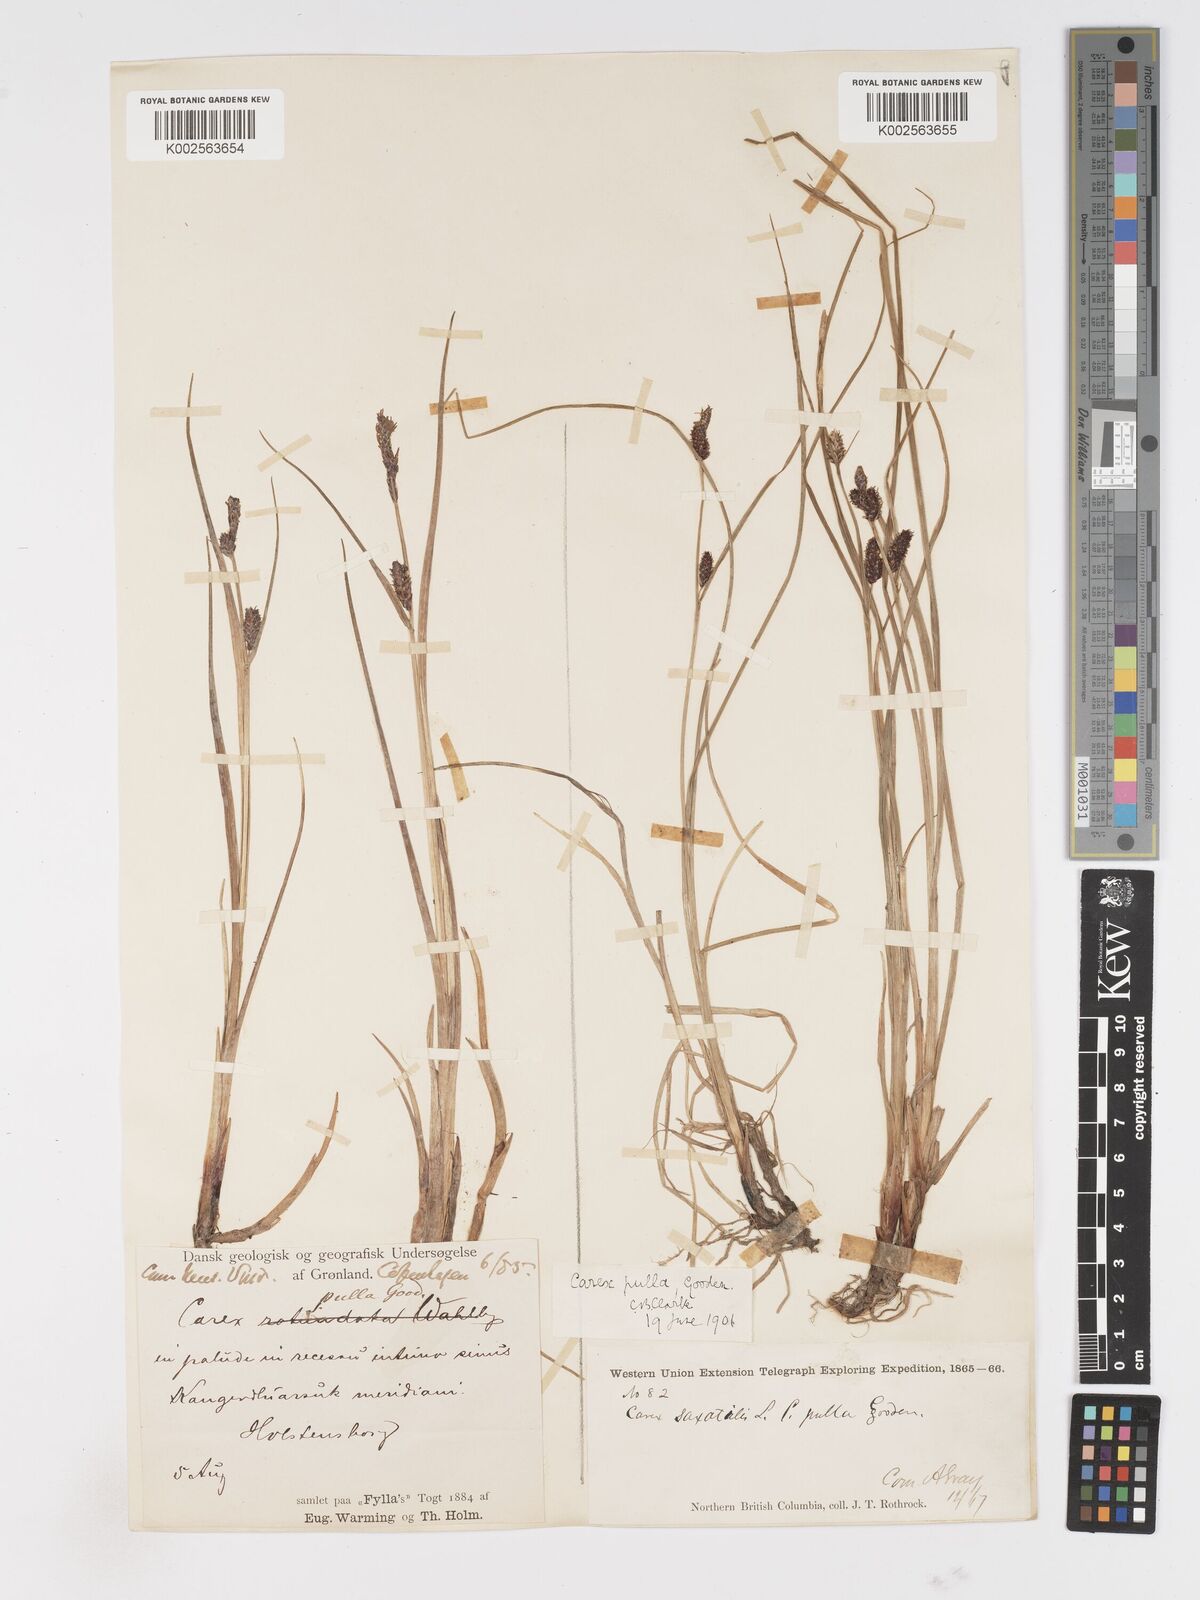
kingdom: Plantae
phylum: Tracheophyta
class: Liliopsida
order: Poales
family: Cyperaceae
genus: Carex
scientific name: Carex saxatilis
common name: Russet sedge
